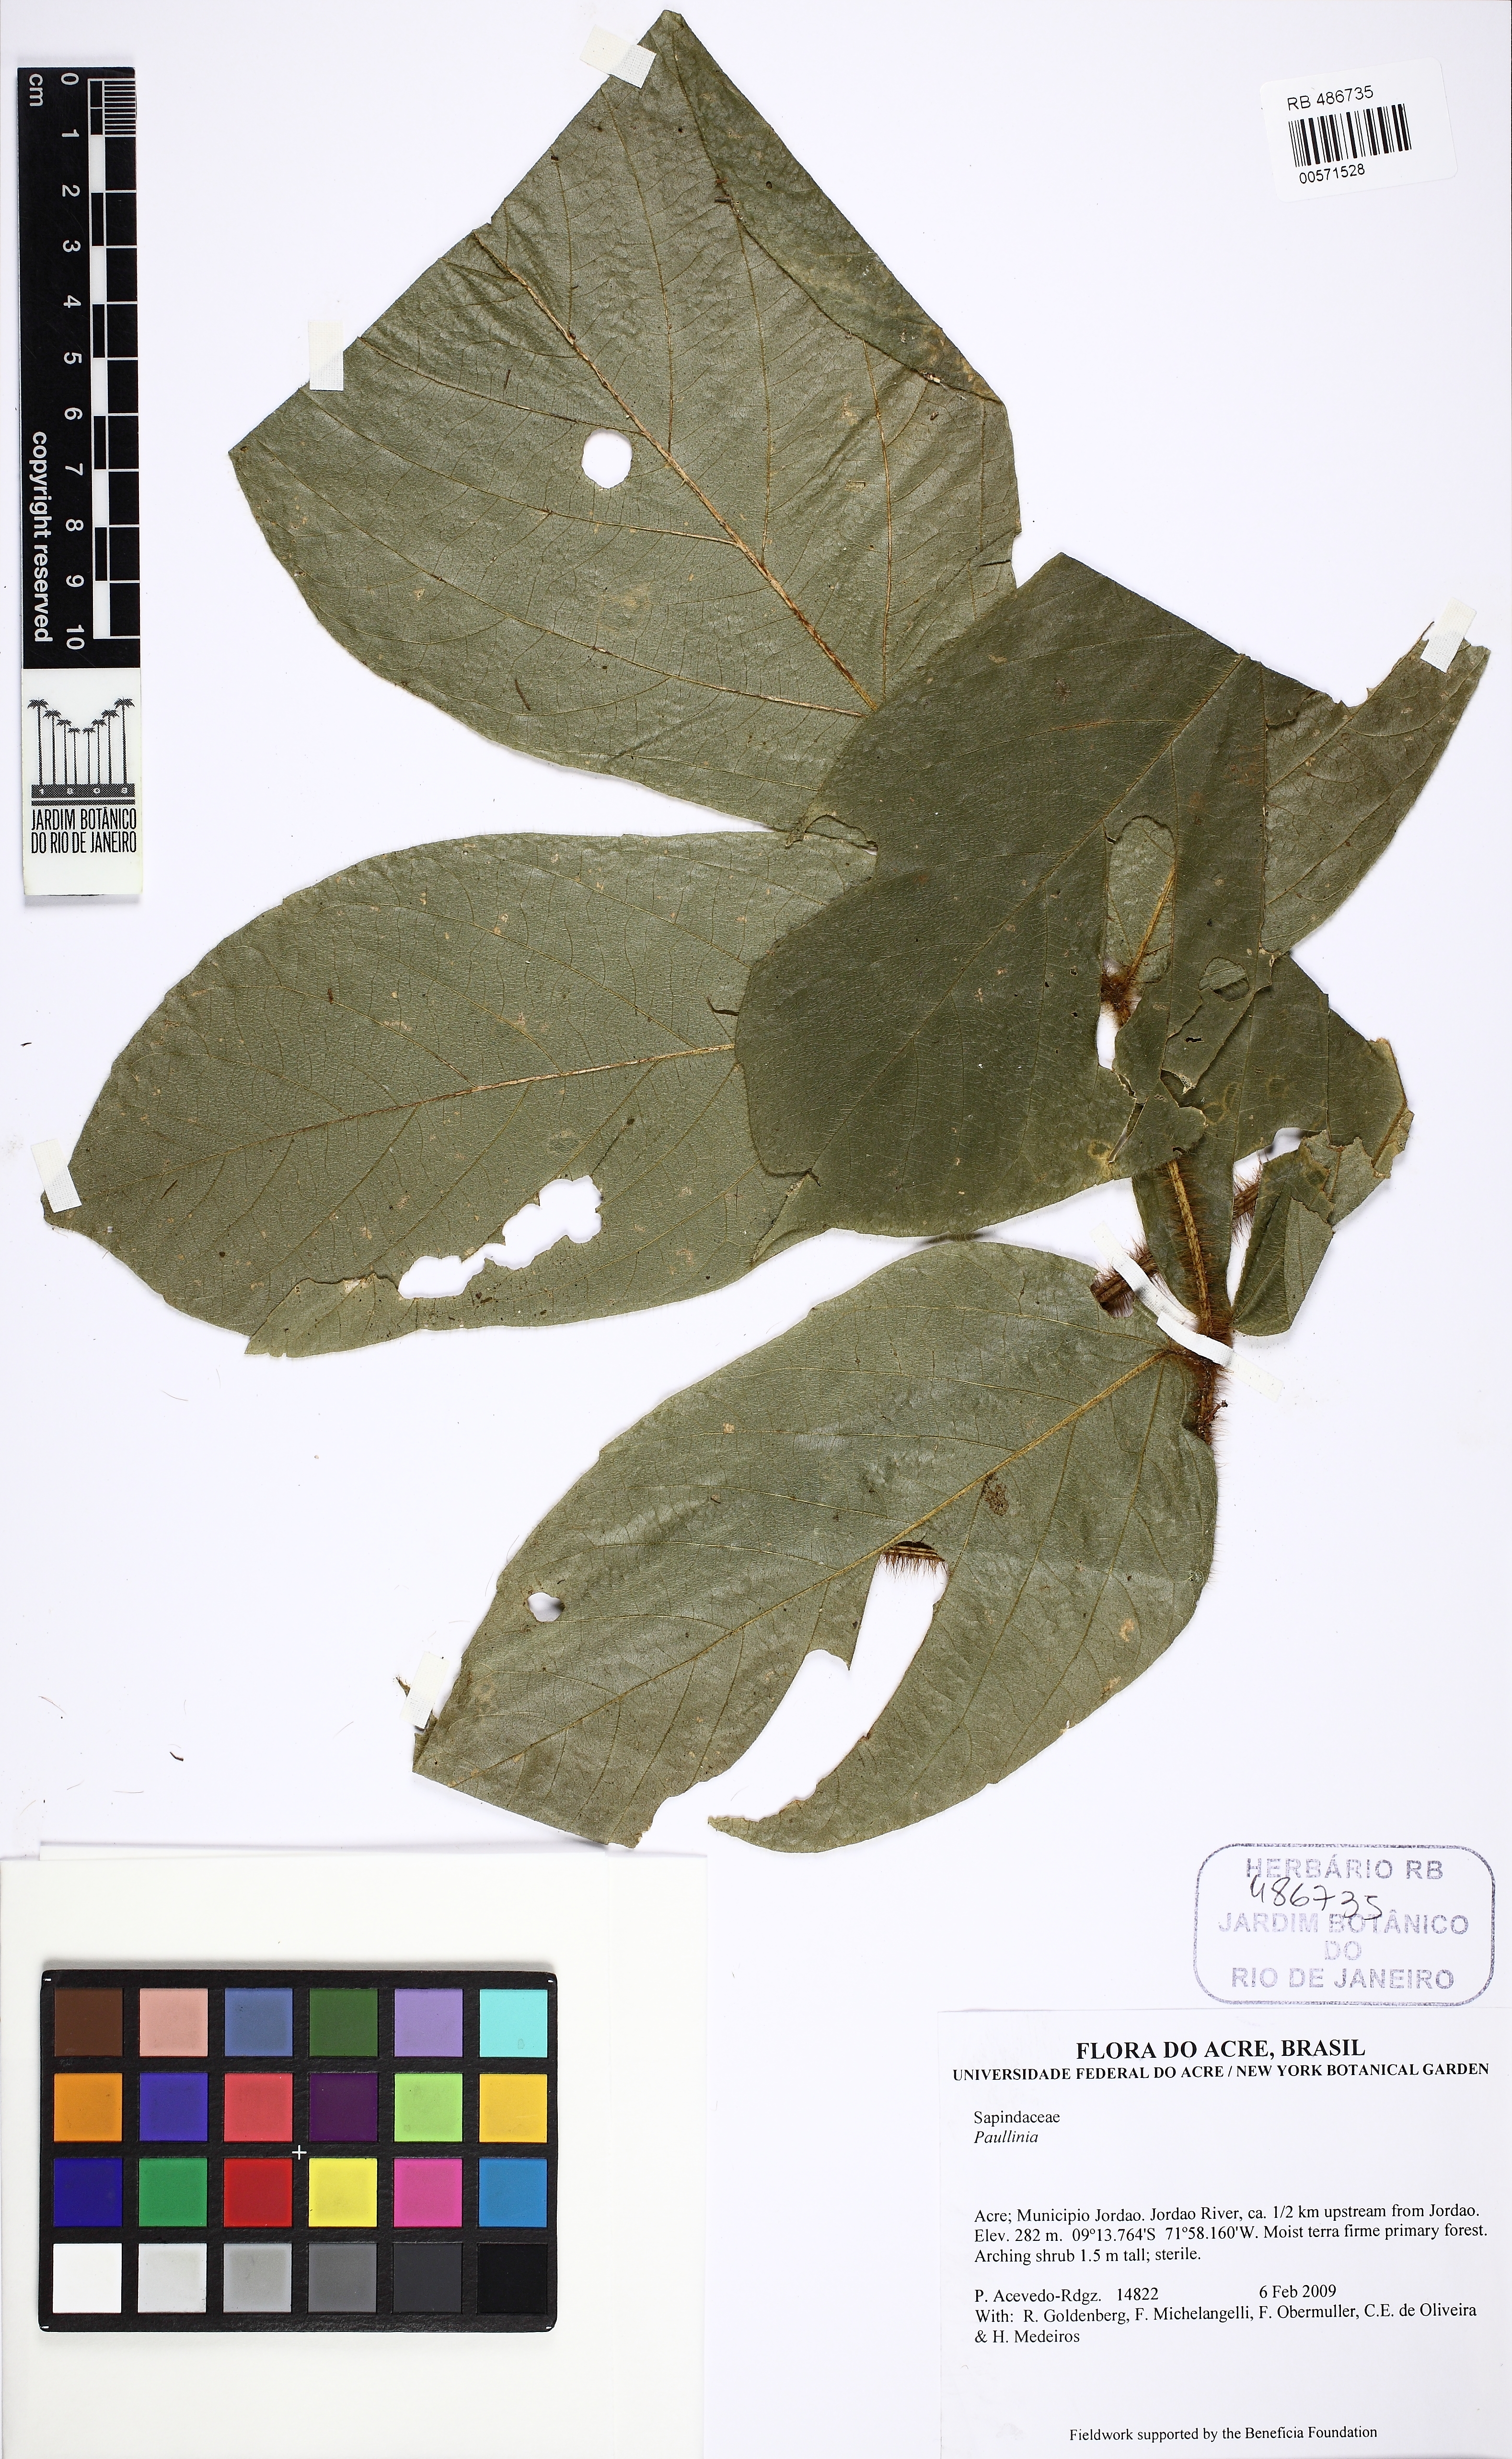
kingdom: Plantae
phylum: Tracheophyta
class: Magnoliopsida
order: Sapindales
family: Sapindaceae
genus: Paullinia
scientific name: Paullinia setosa
